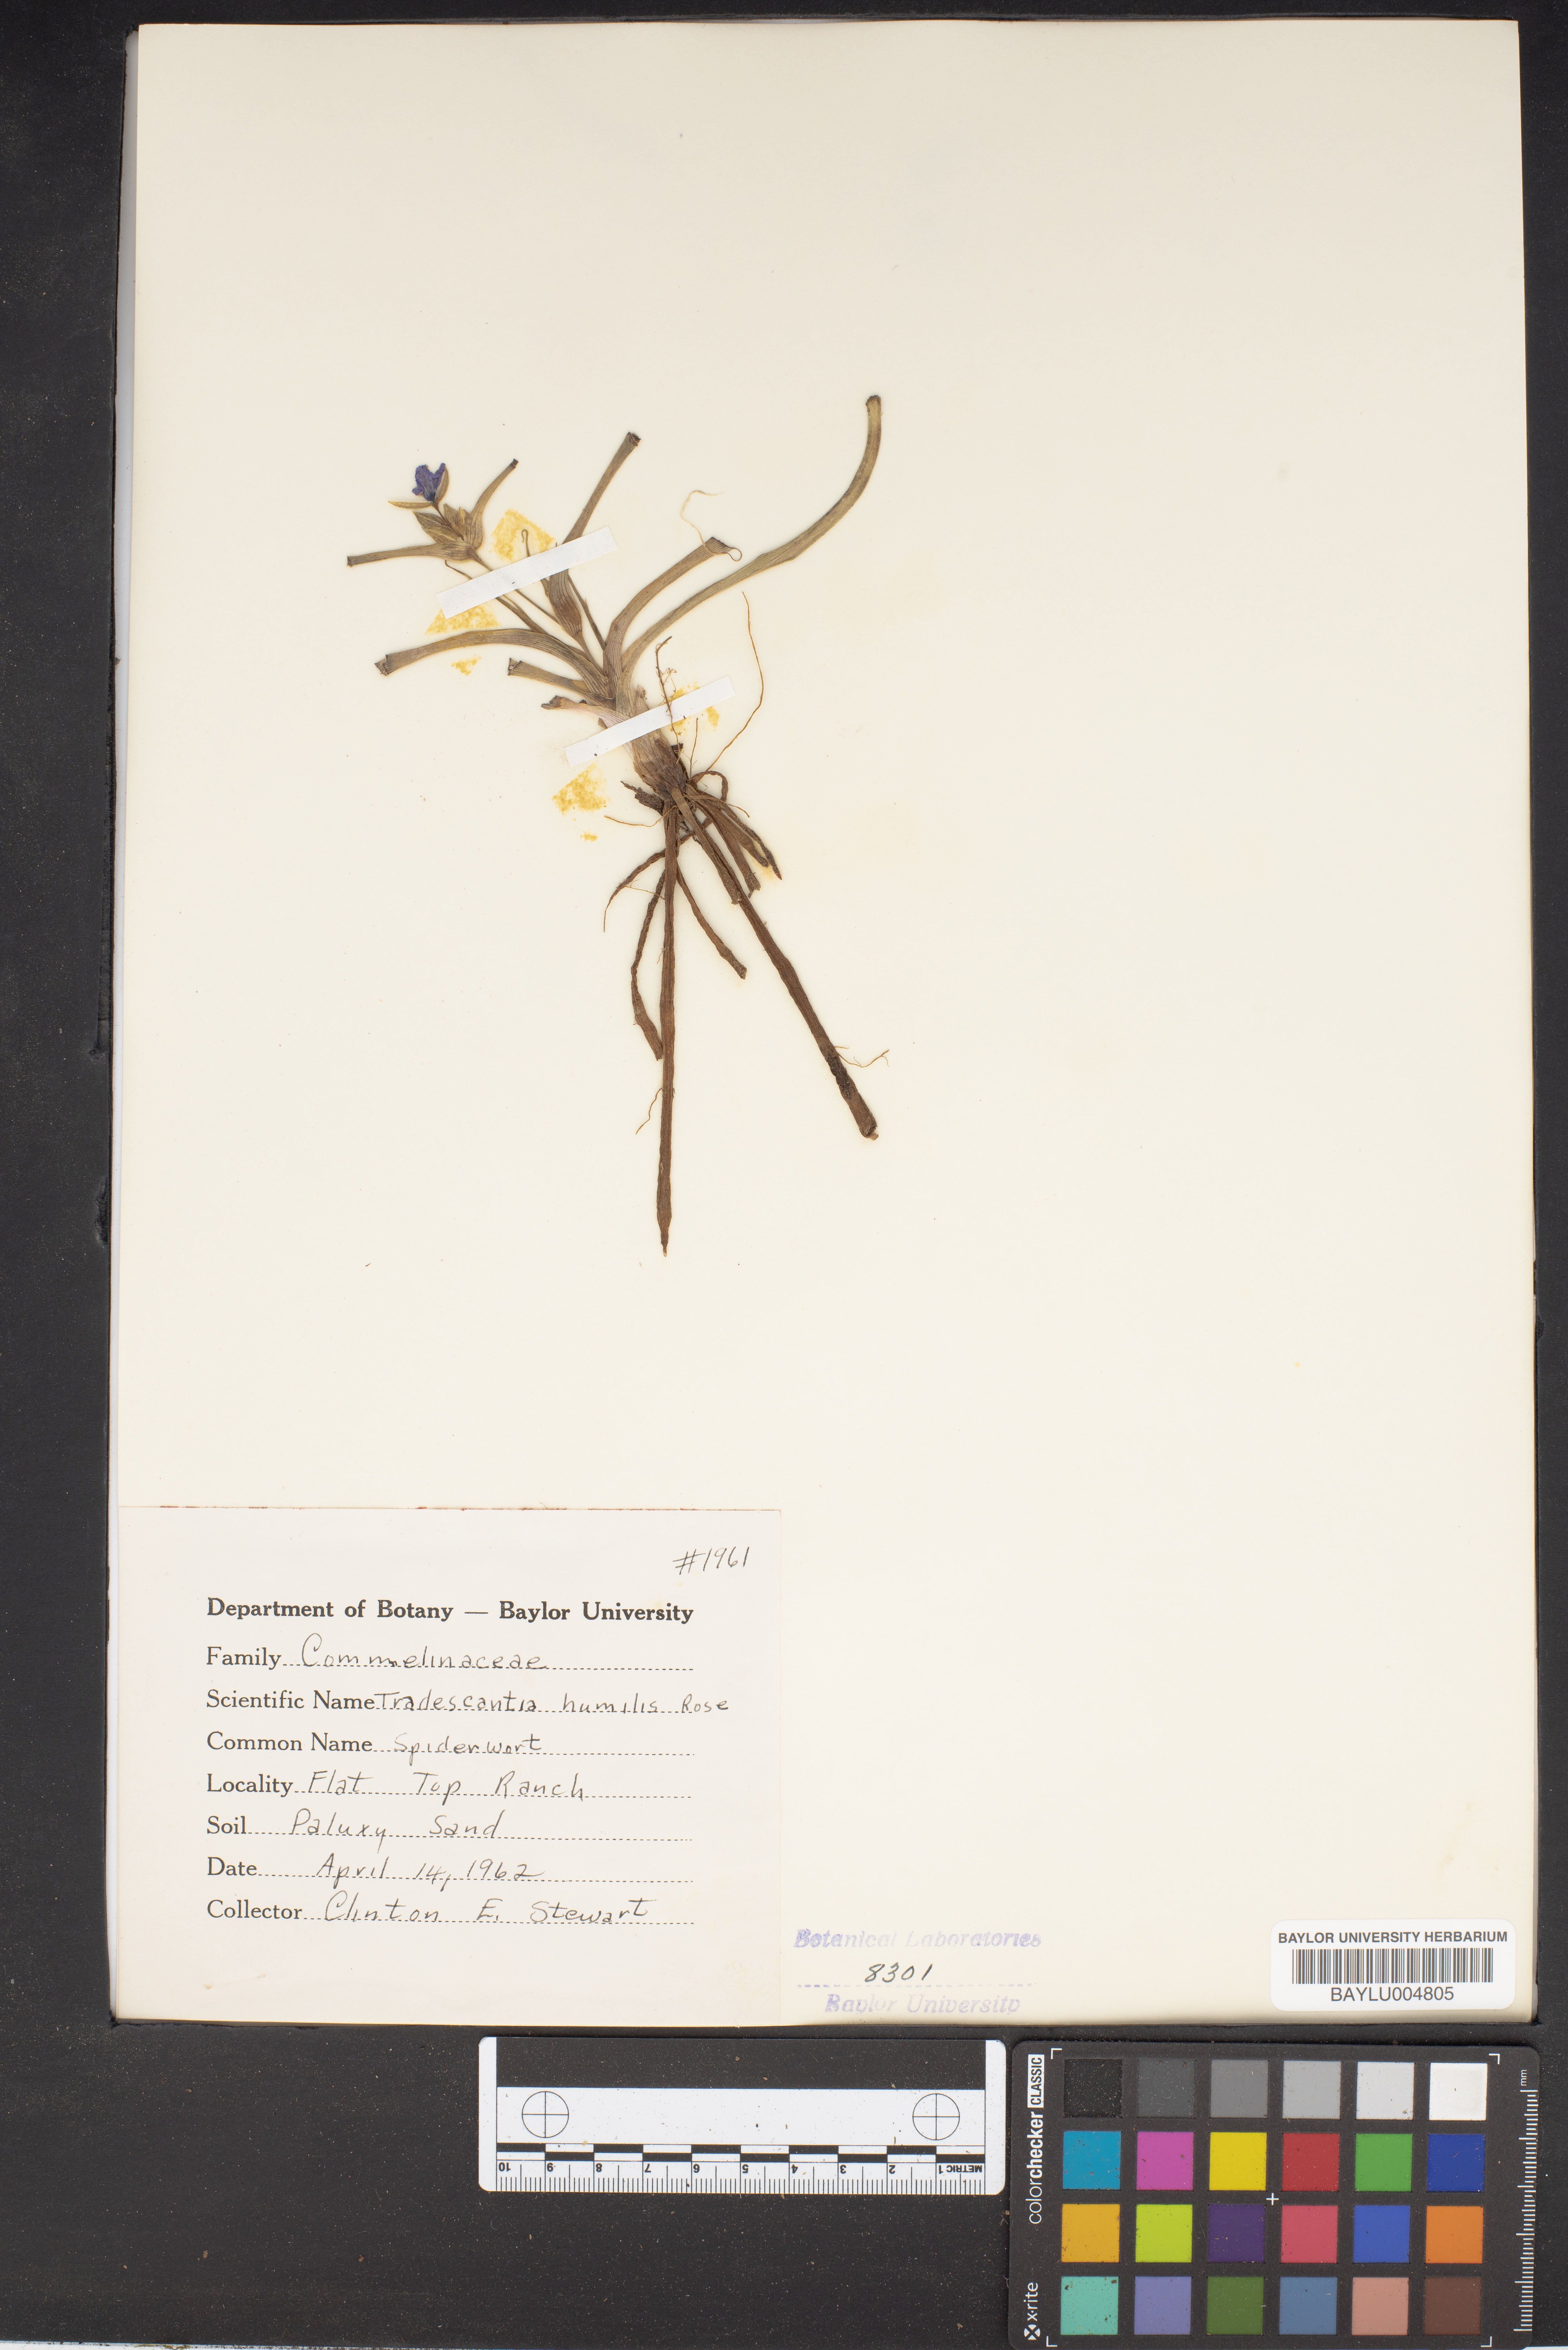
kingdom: Plantae
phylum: Tracheophyta
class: Liliopsida
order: Commelinales
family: Commelinaceae
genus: Tradescantia
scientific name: Tradescantia humilis
